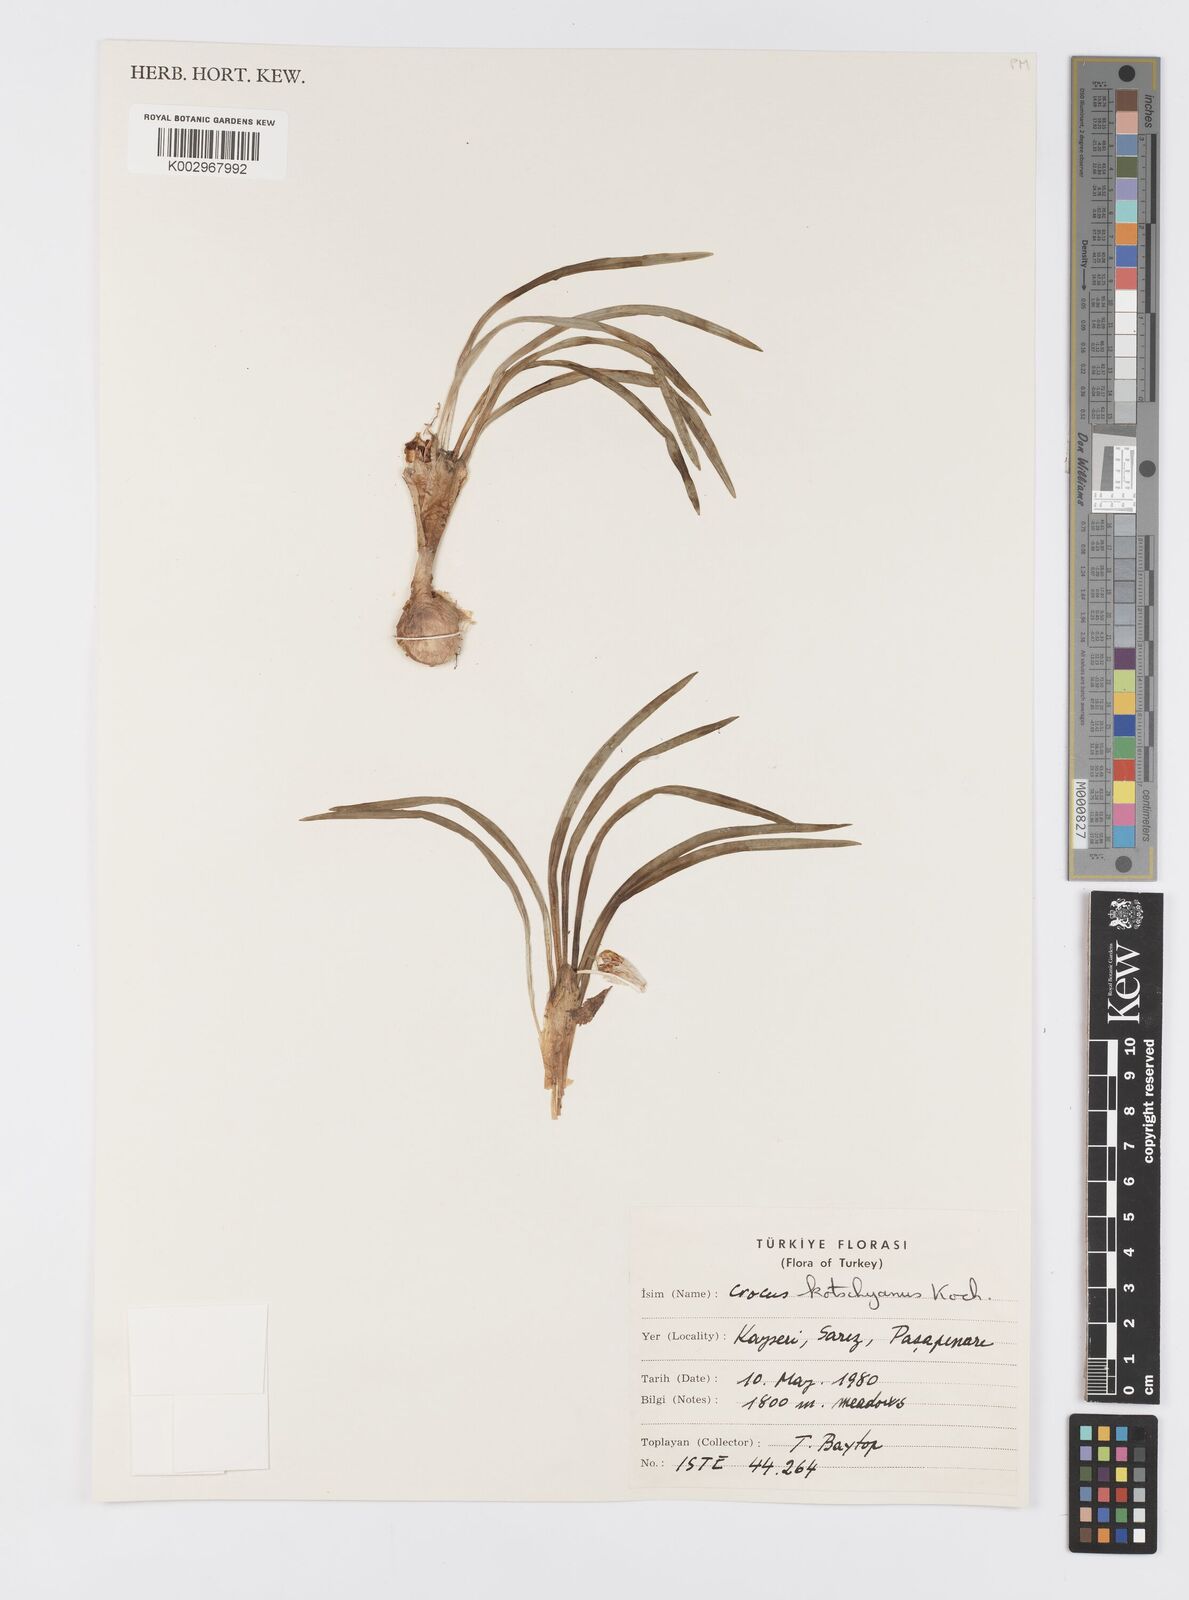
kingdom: Plantae
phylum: Tracheophyta
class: Liliopsida
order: Asparagales
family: Iridaceae
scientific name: Iridaceae
